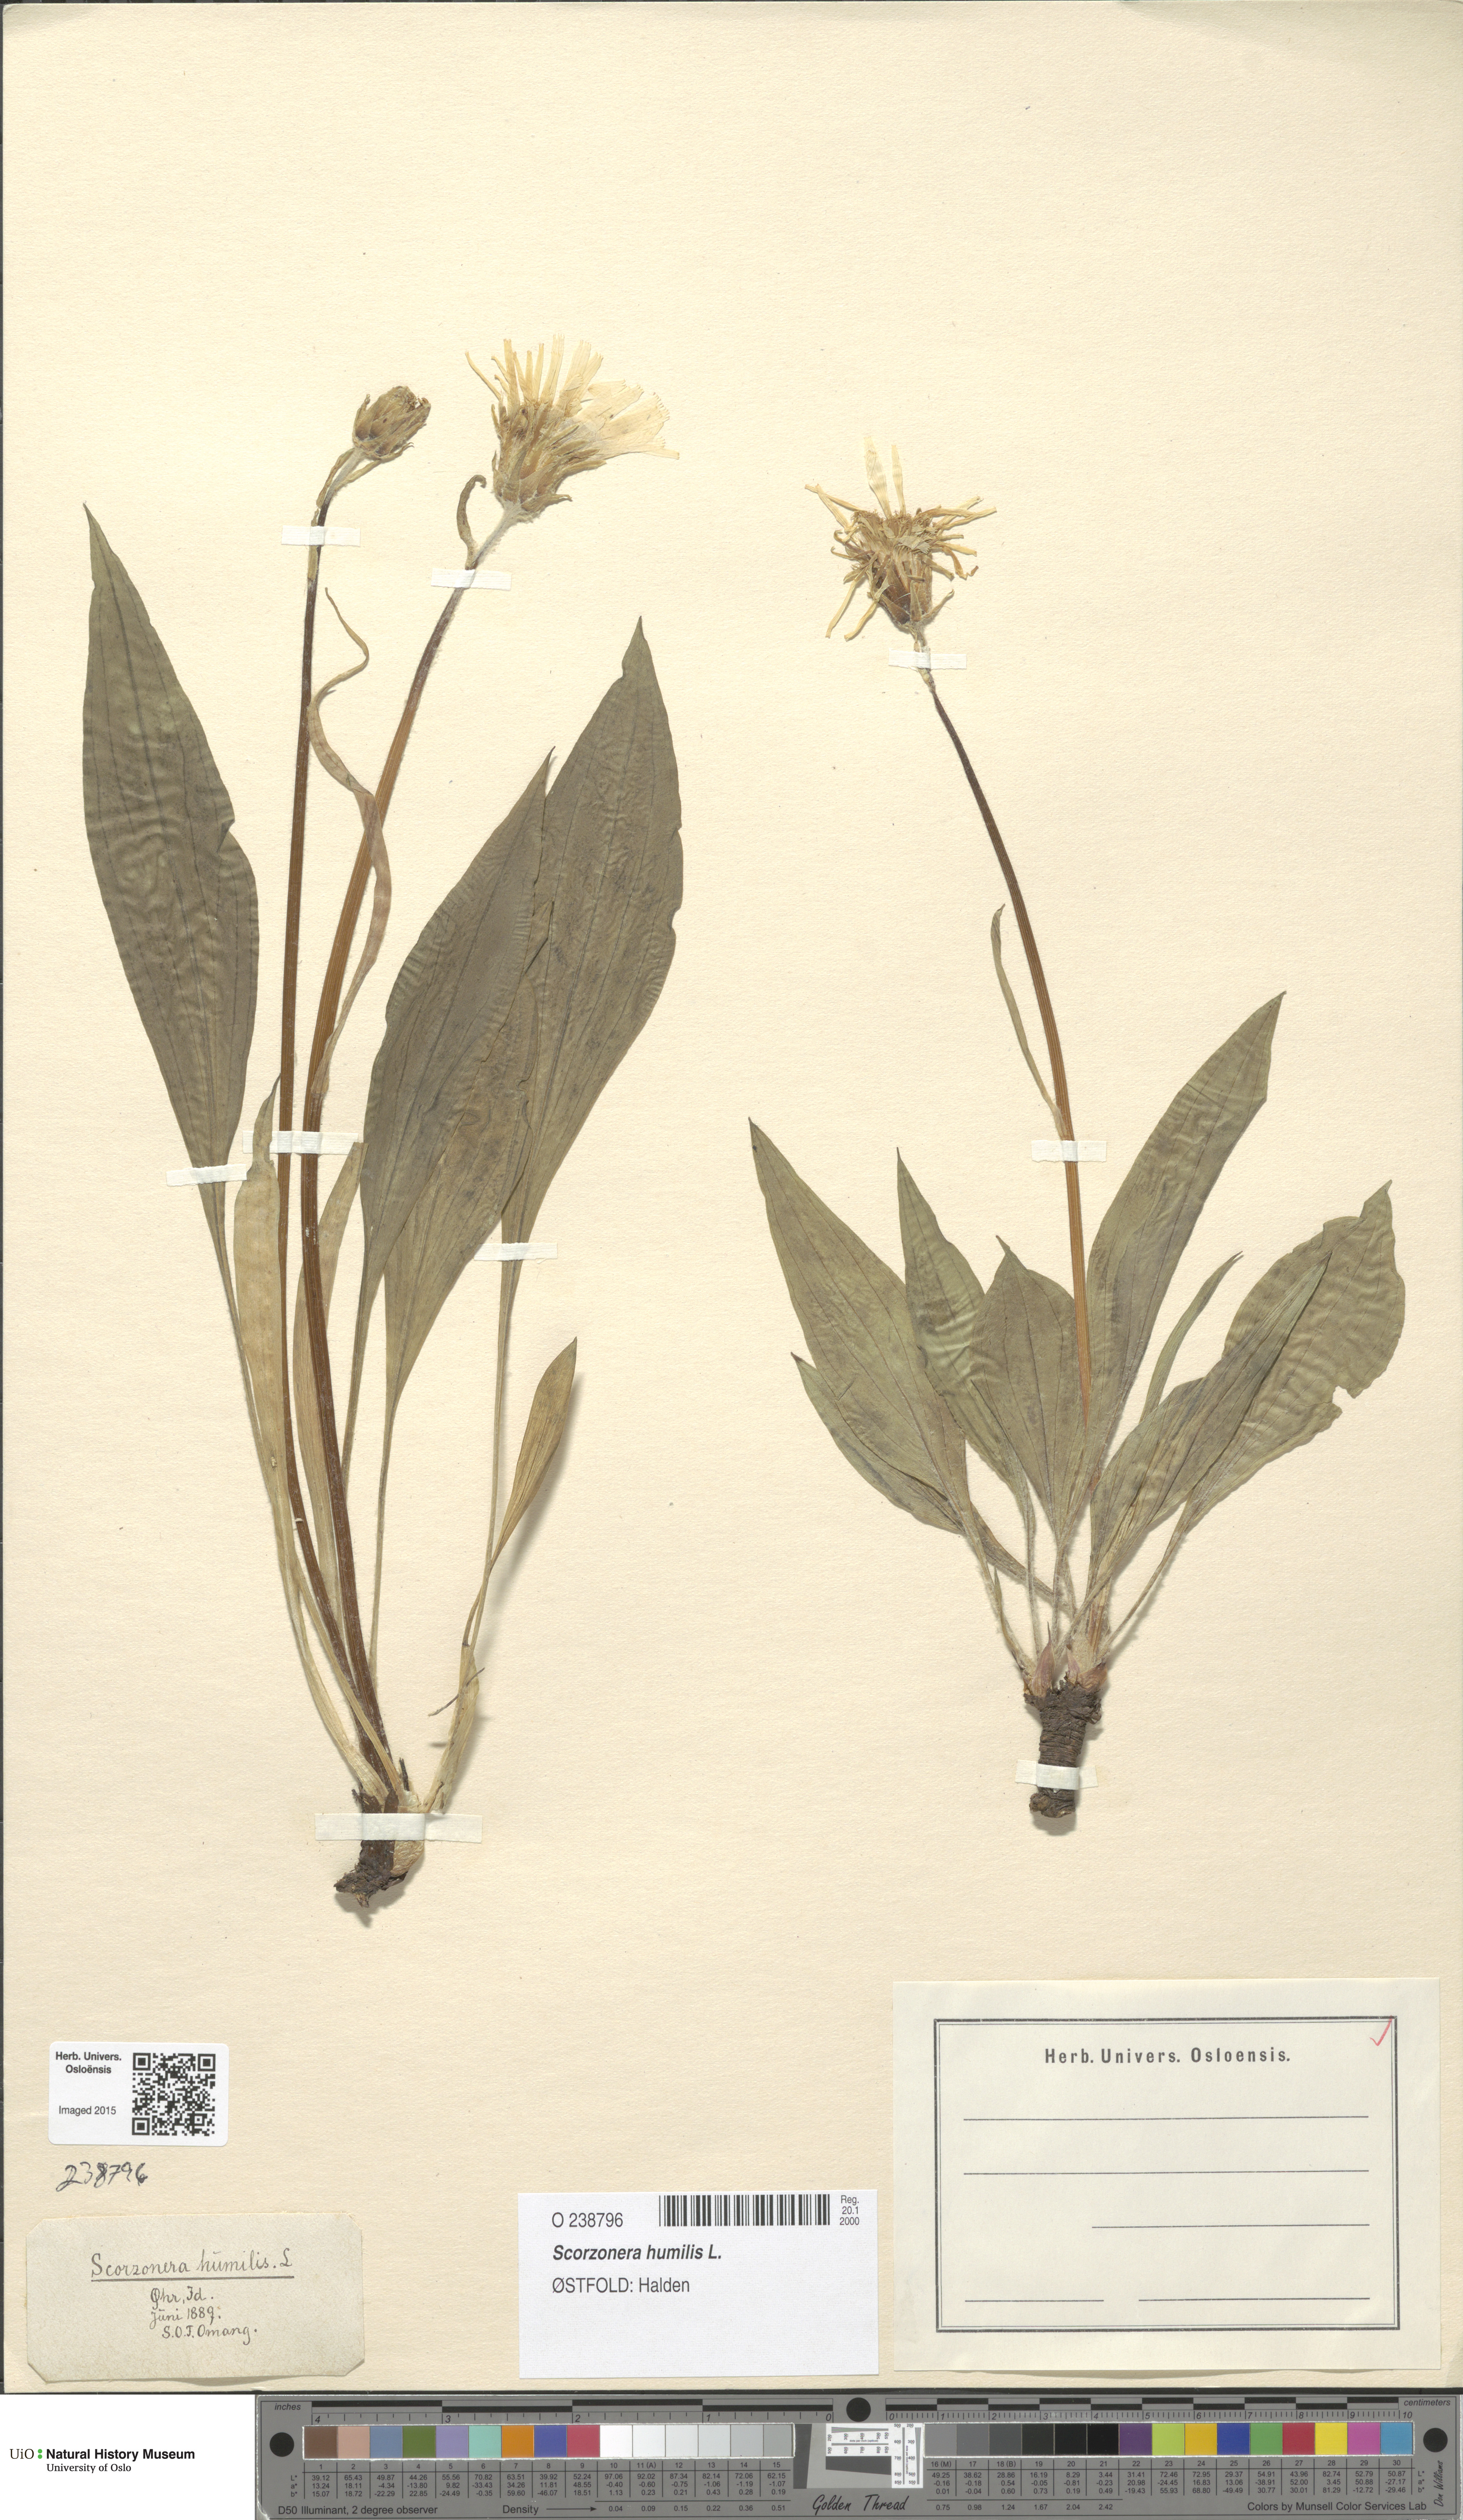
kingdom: Plantae
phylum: Tracheophyta
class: Magnoliopsida
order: Asterales
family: Asteraceae
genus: Scorzonera
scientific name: Scorzonera humilis
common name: Viper's-grass
